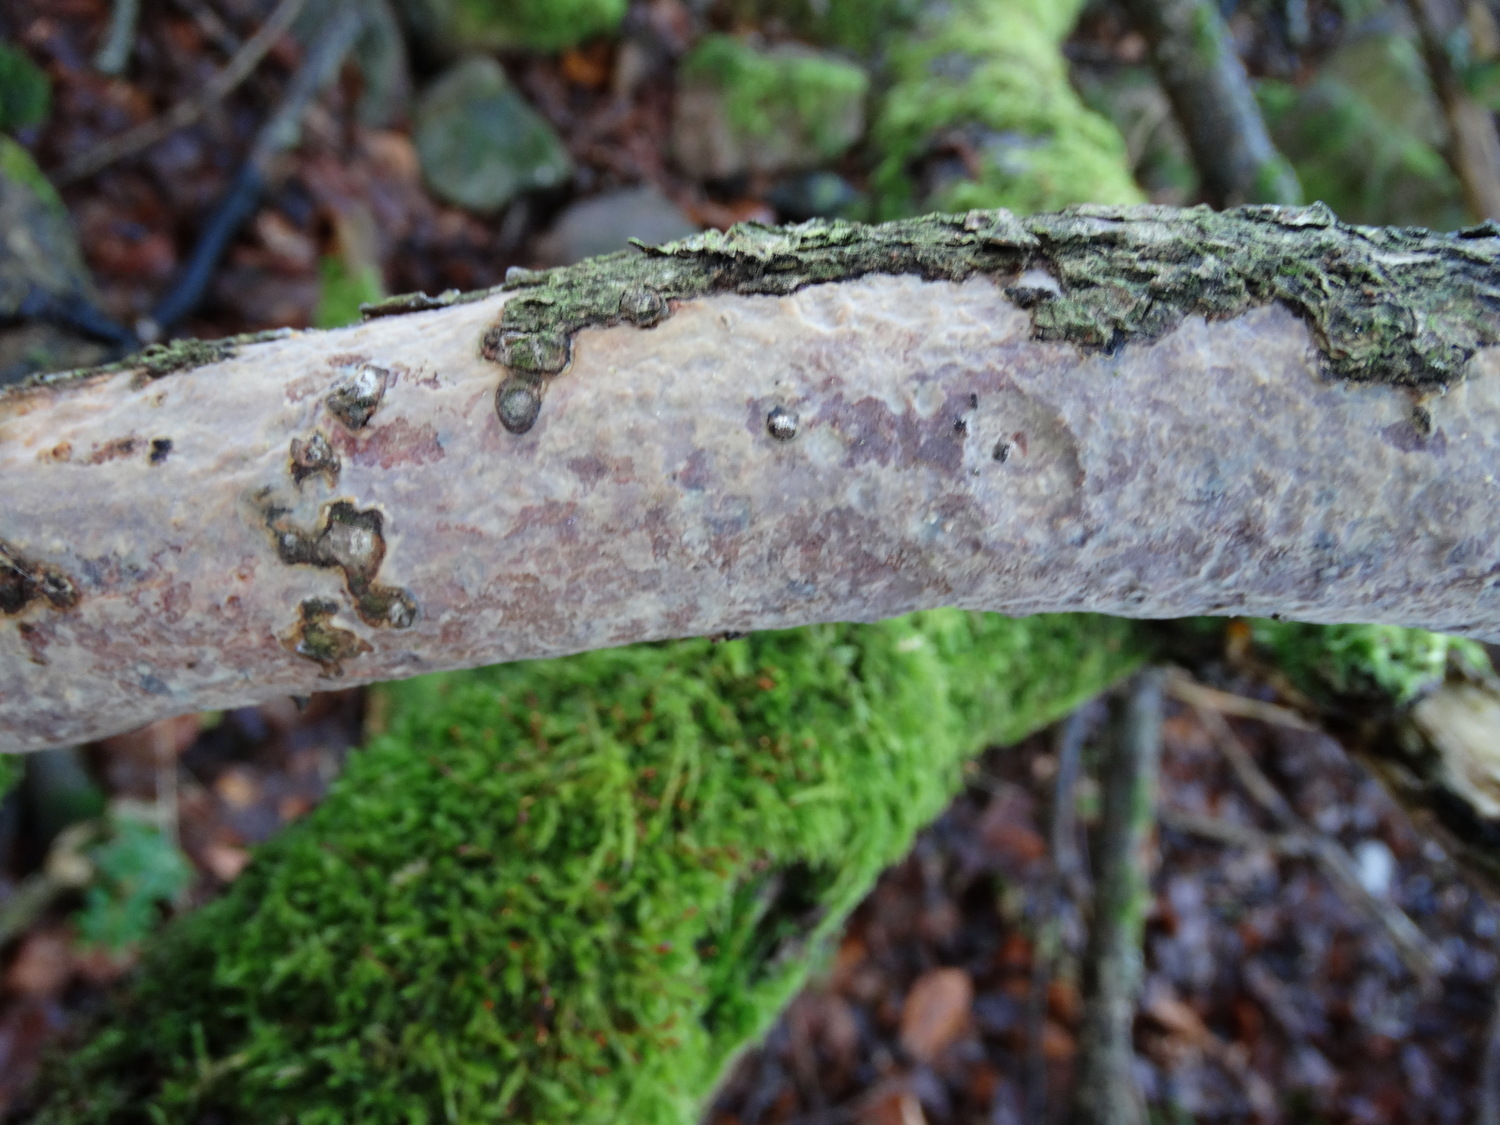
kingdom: Fungi
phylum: Basidiomycota
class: Agaricomycetes
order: Corticiales
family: Vuilleminiaceae
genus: Vuilleminia
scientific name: Vuilleminia comedens
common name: almindelig barksprænger
